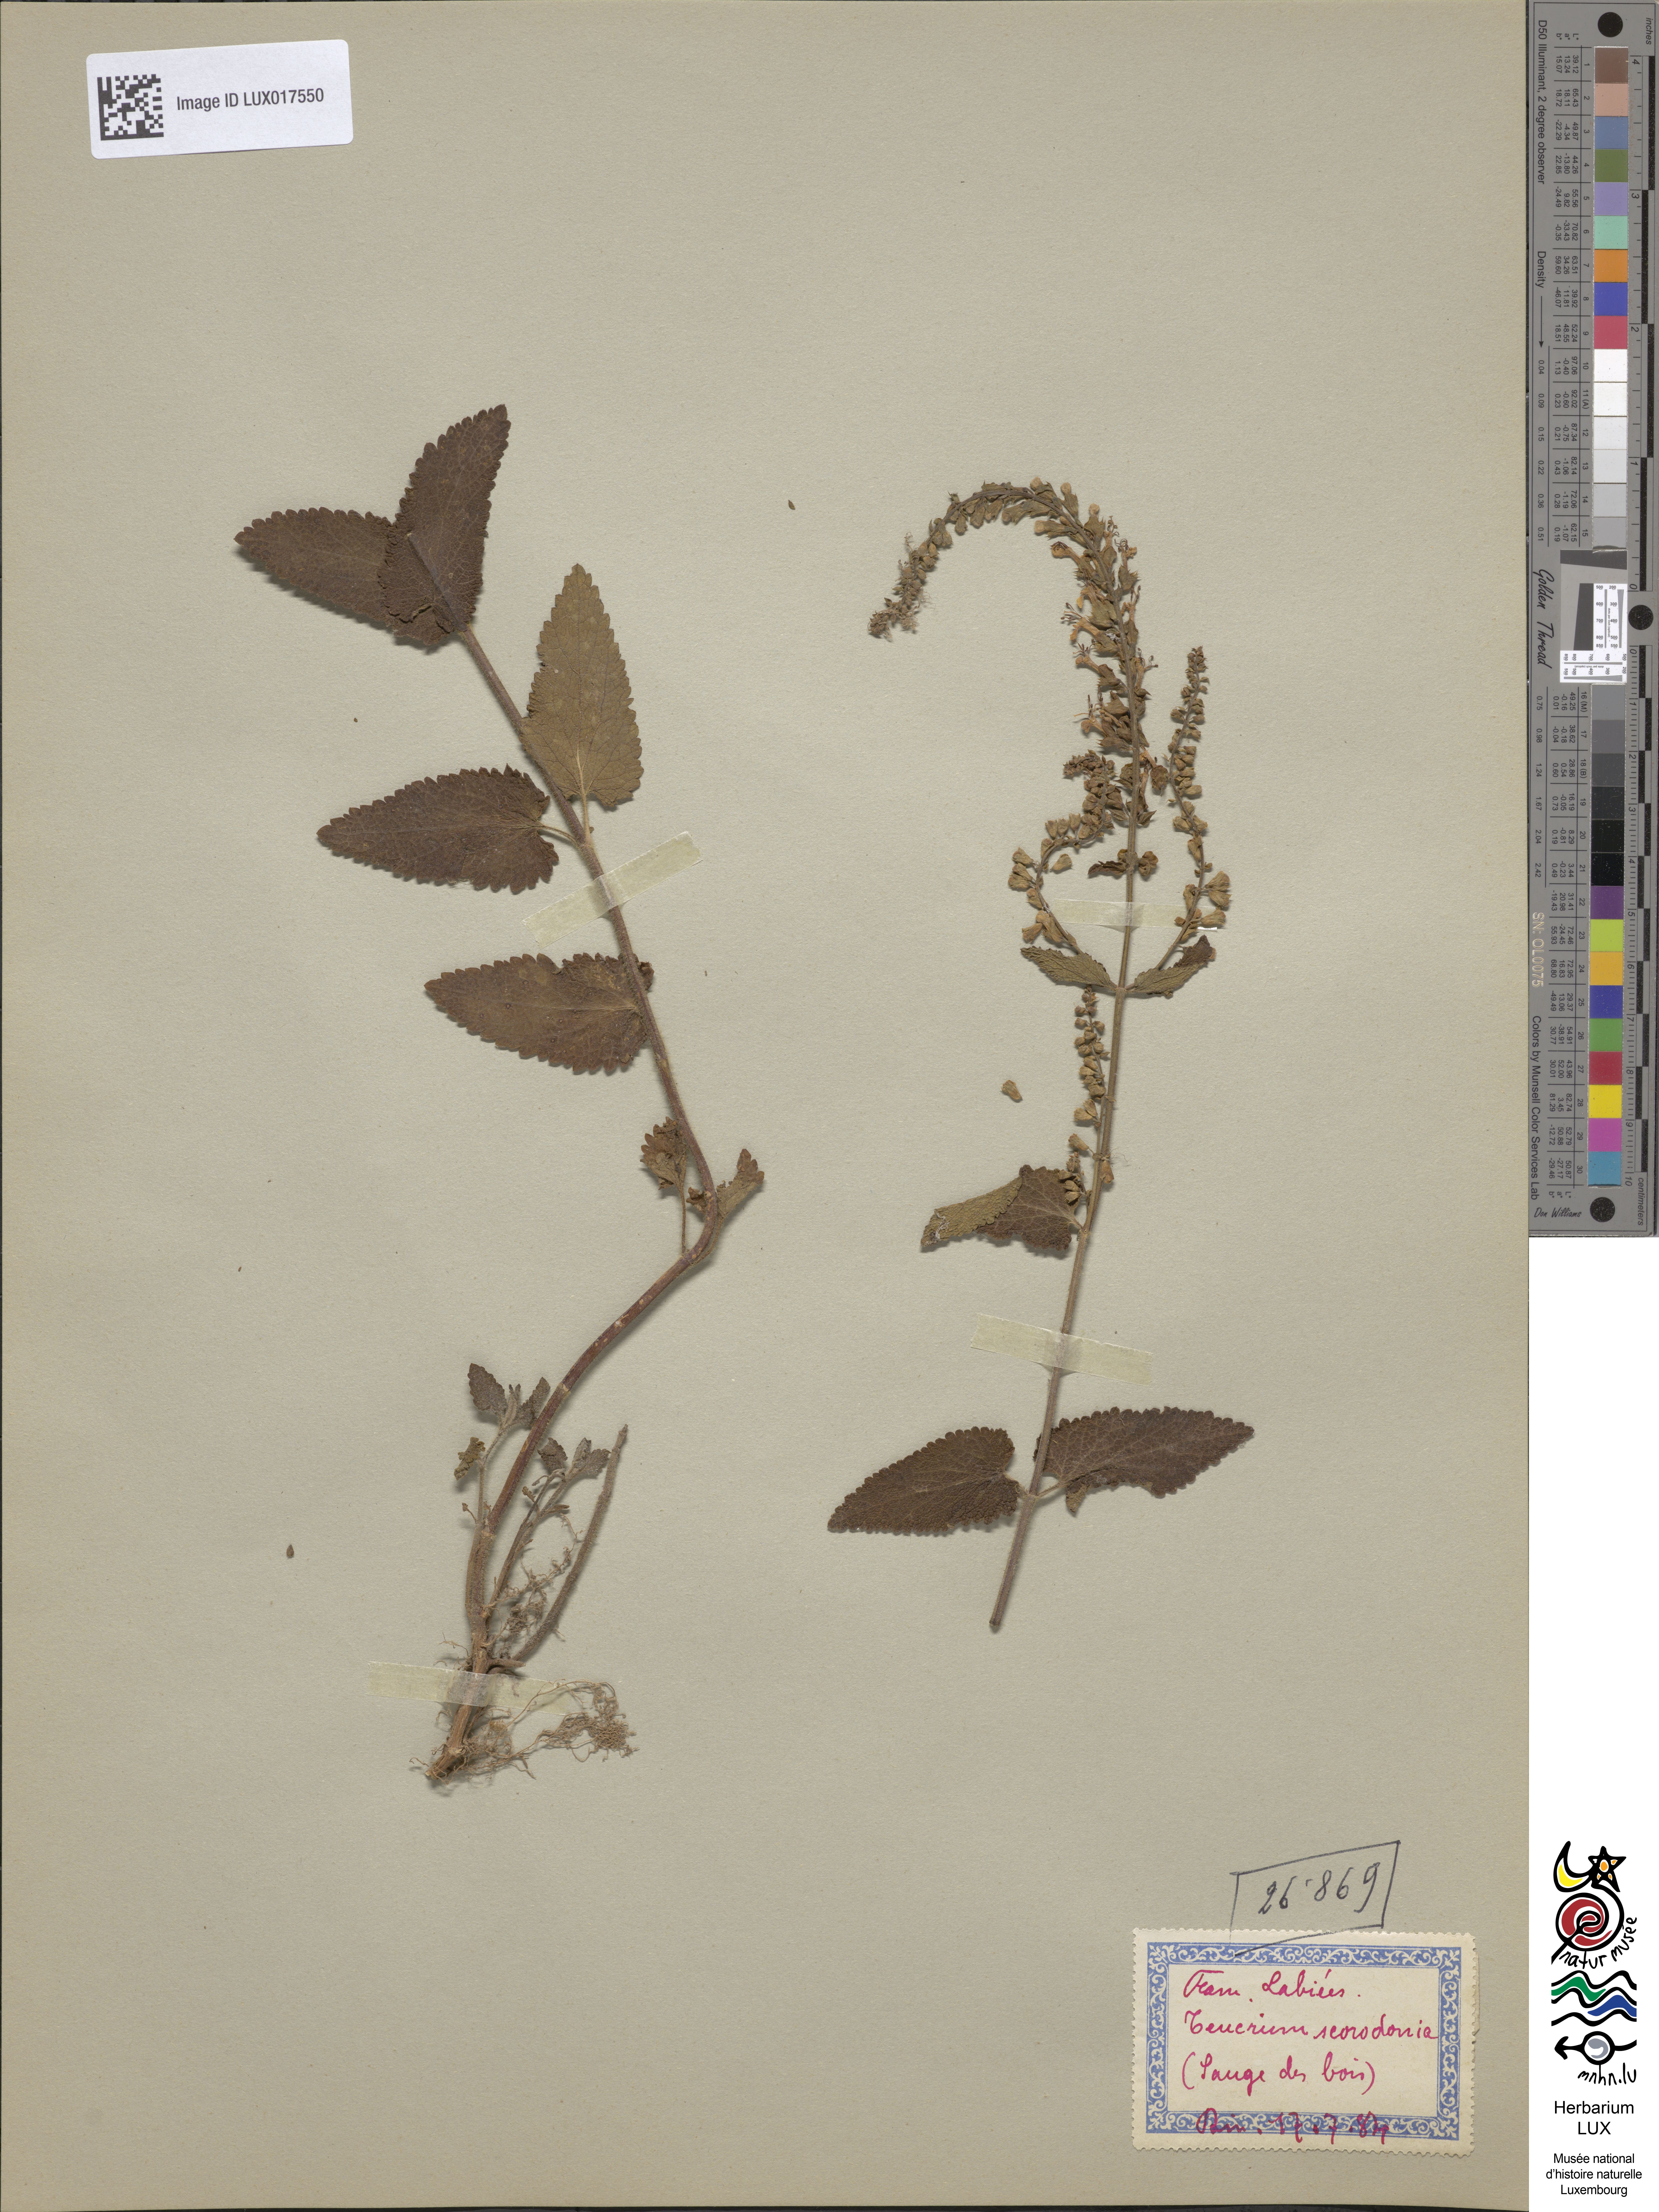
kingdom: Plantae
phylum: Tracheophyta
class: Magnoliopsida
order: Lamiales
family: Lamiaceae
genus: Teucrium
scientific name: Teucrium scorodonia
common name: Woodland germander
